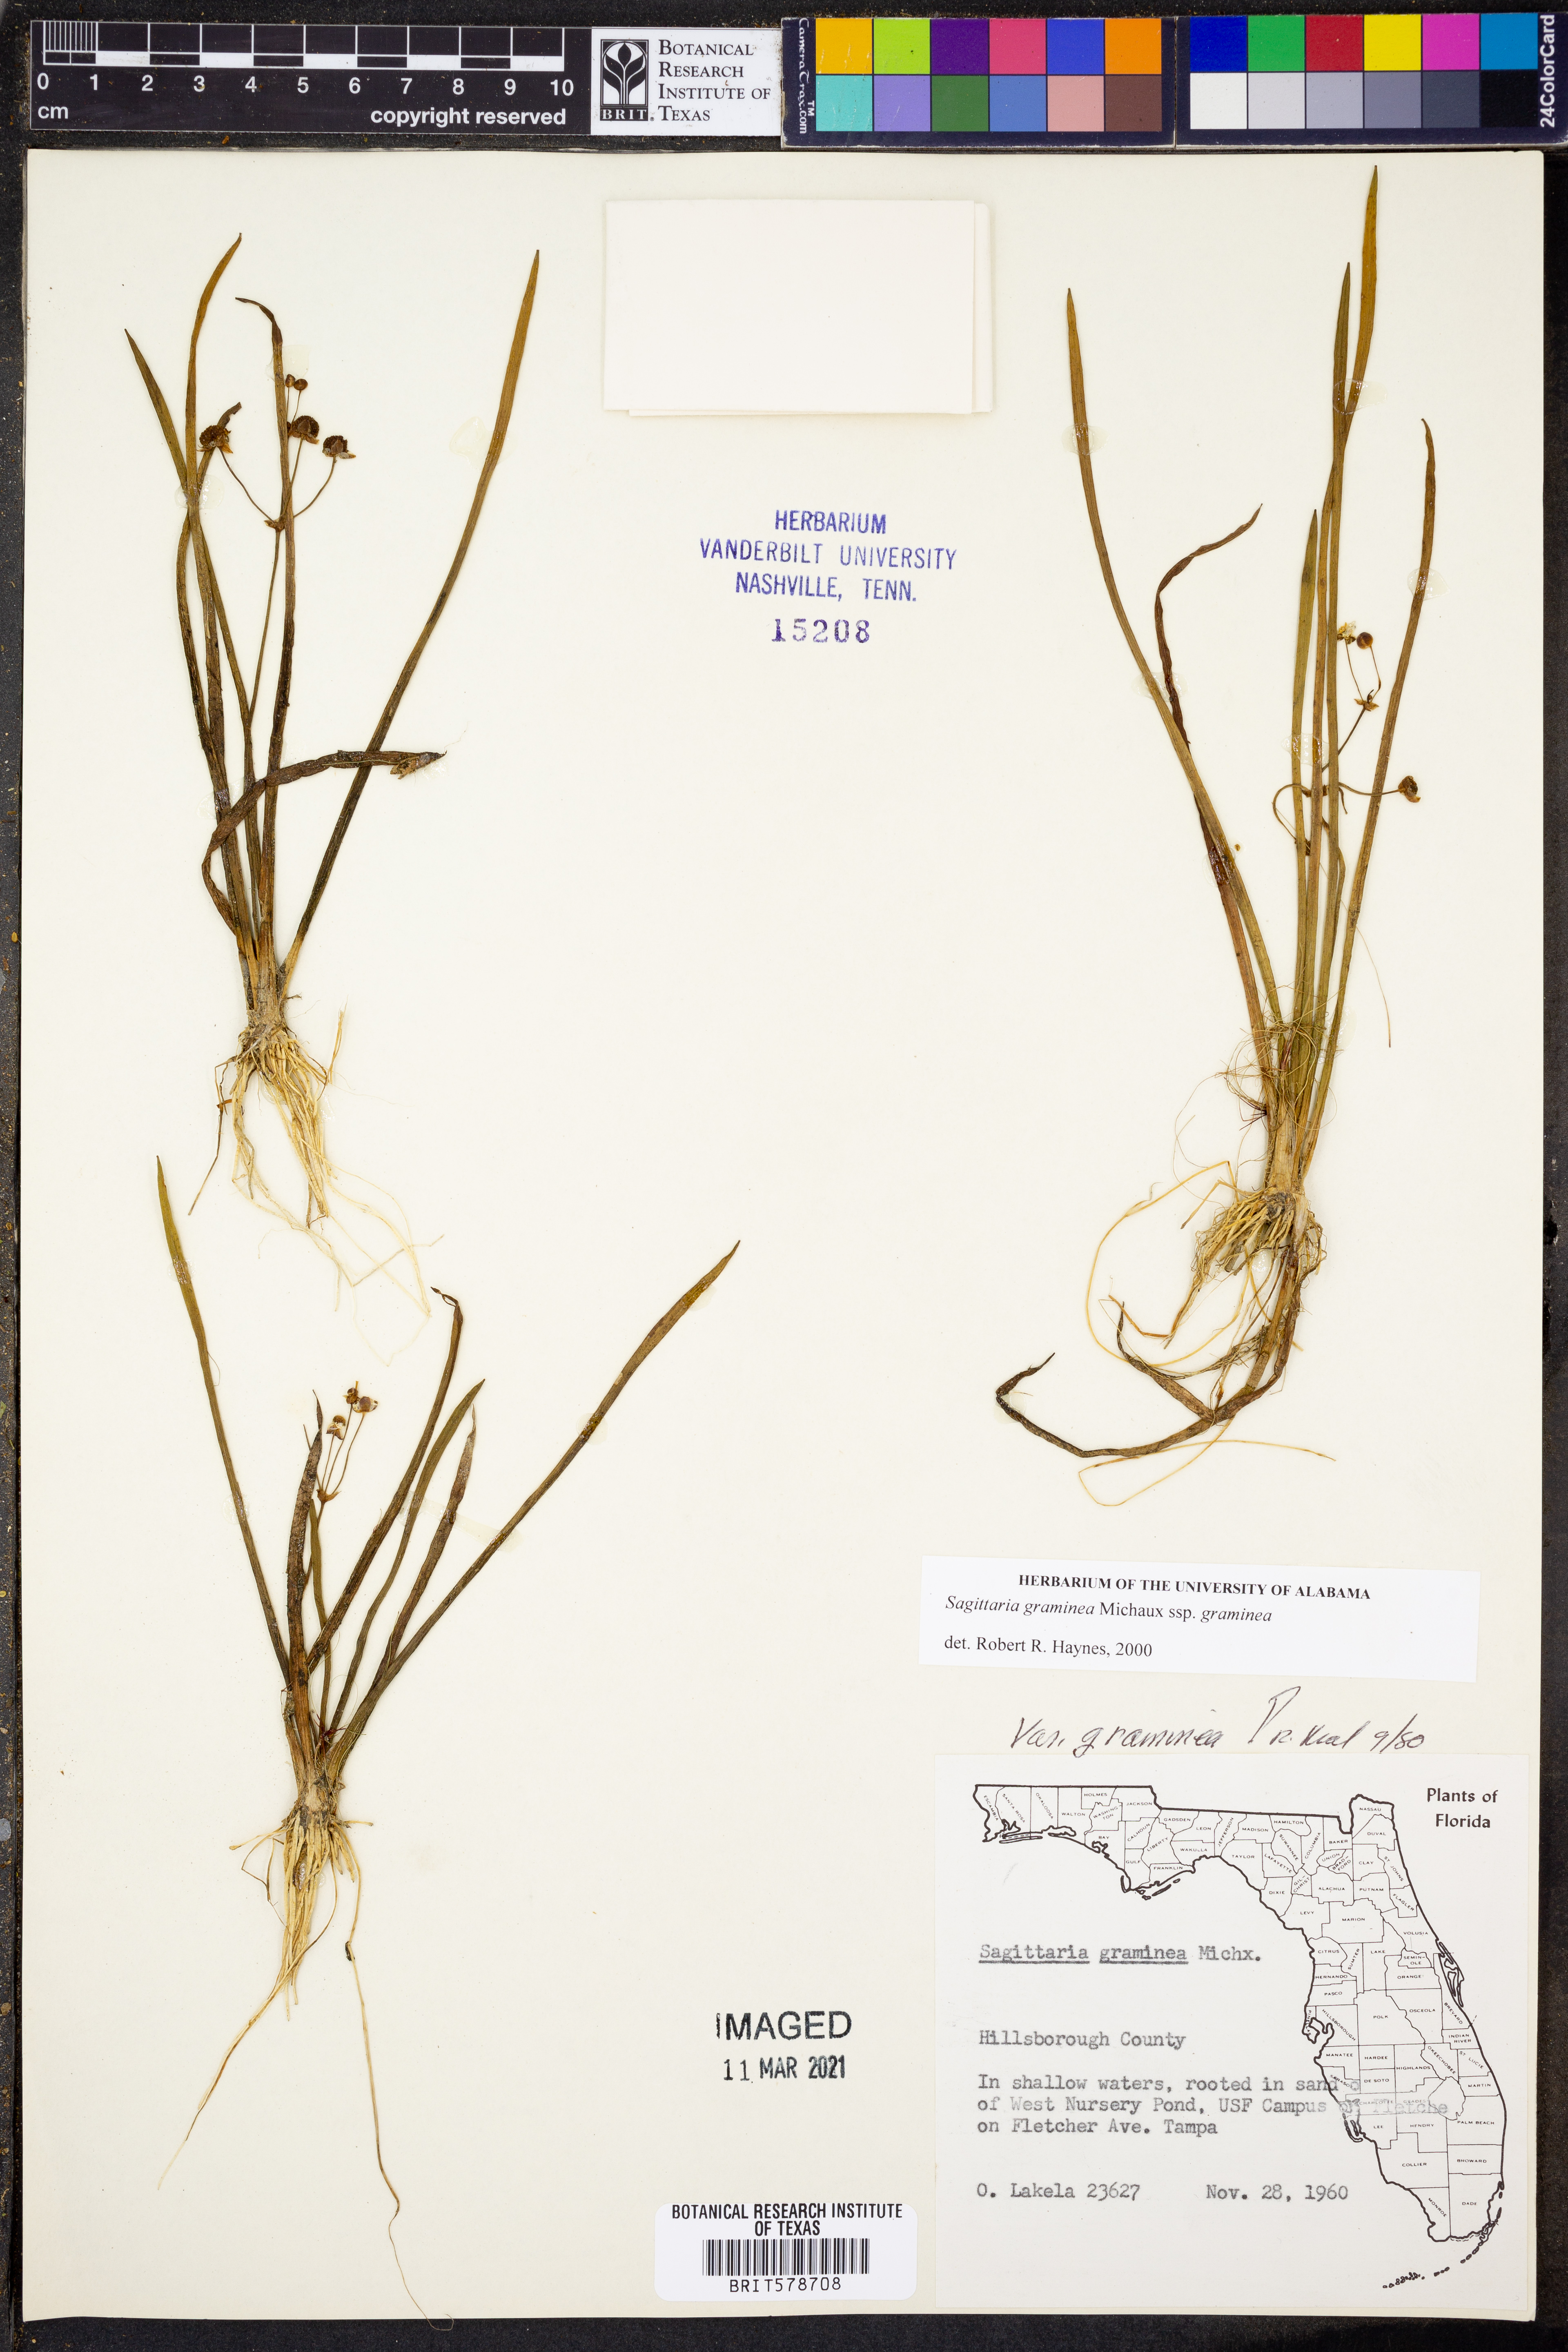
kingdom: Plantae
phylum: Tracheophyta
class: Liliopsida
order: Alismatales
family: Alismataceae
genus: Sagittaria
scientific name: Sagittaria graminea
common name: Grass-leaved arrowhead
